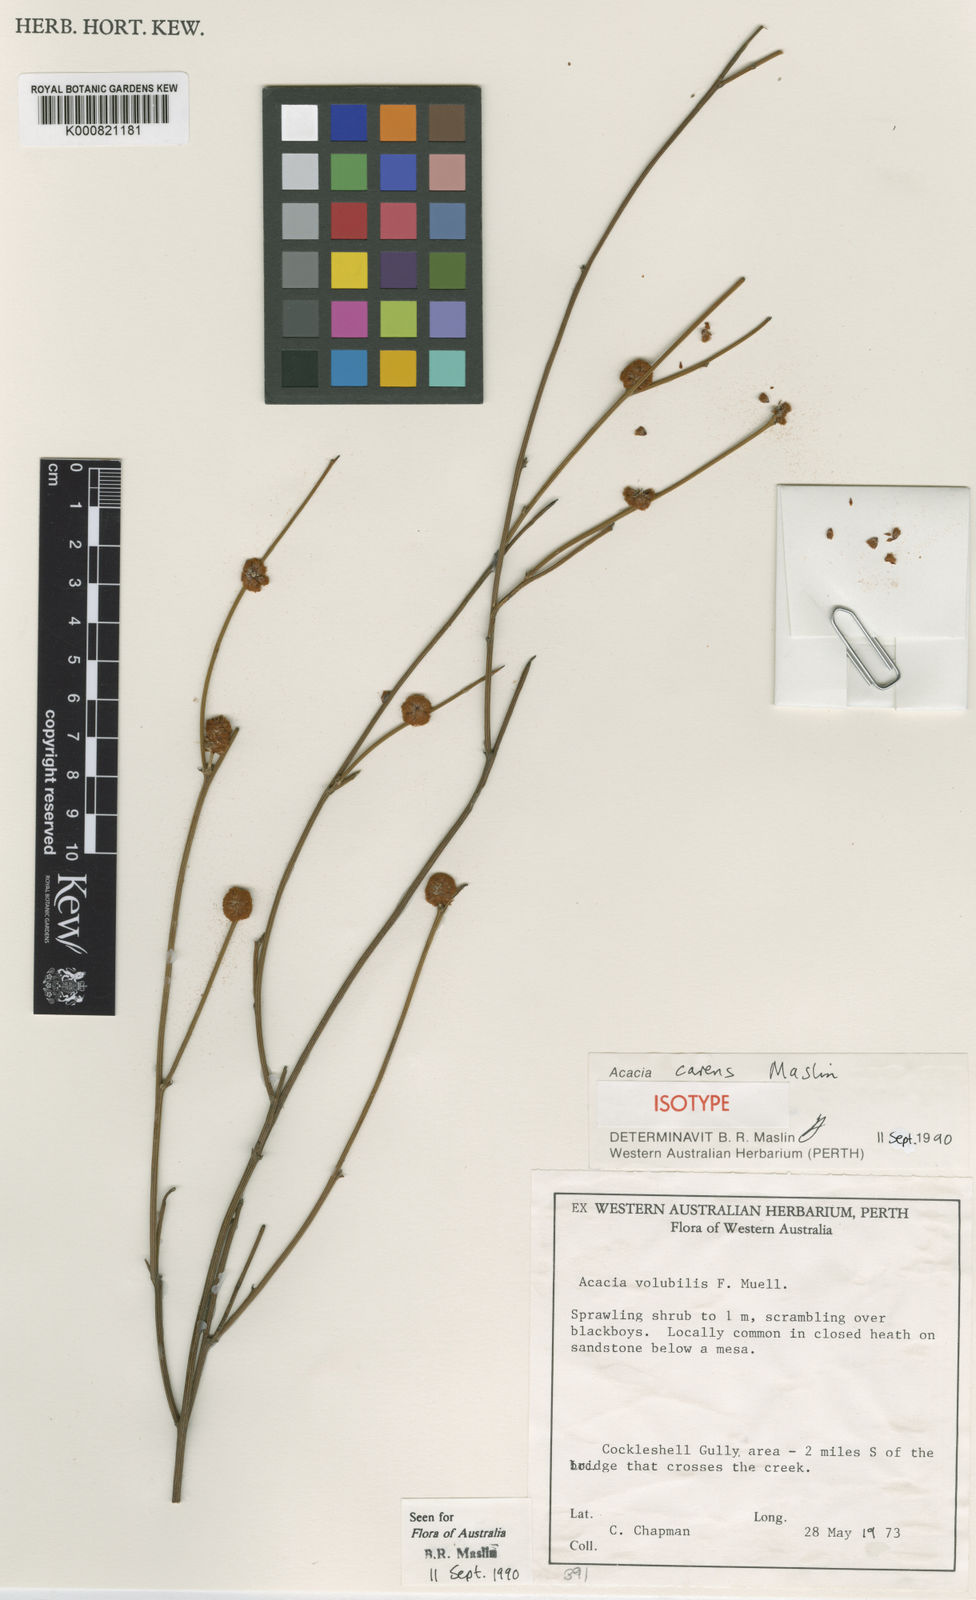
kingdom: Plantae
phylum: Tracheophyta
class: Magnoliopsida
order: Fabales
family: Fabaceae
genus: Acacia
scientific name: Acacia carens
